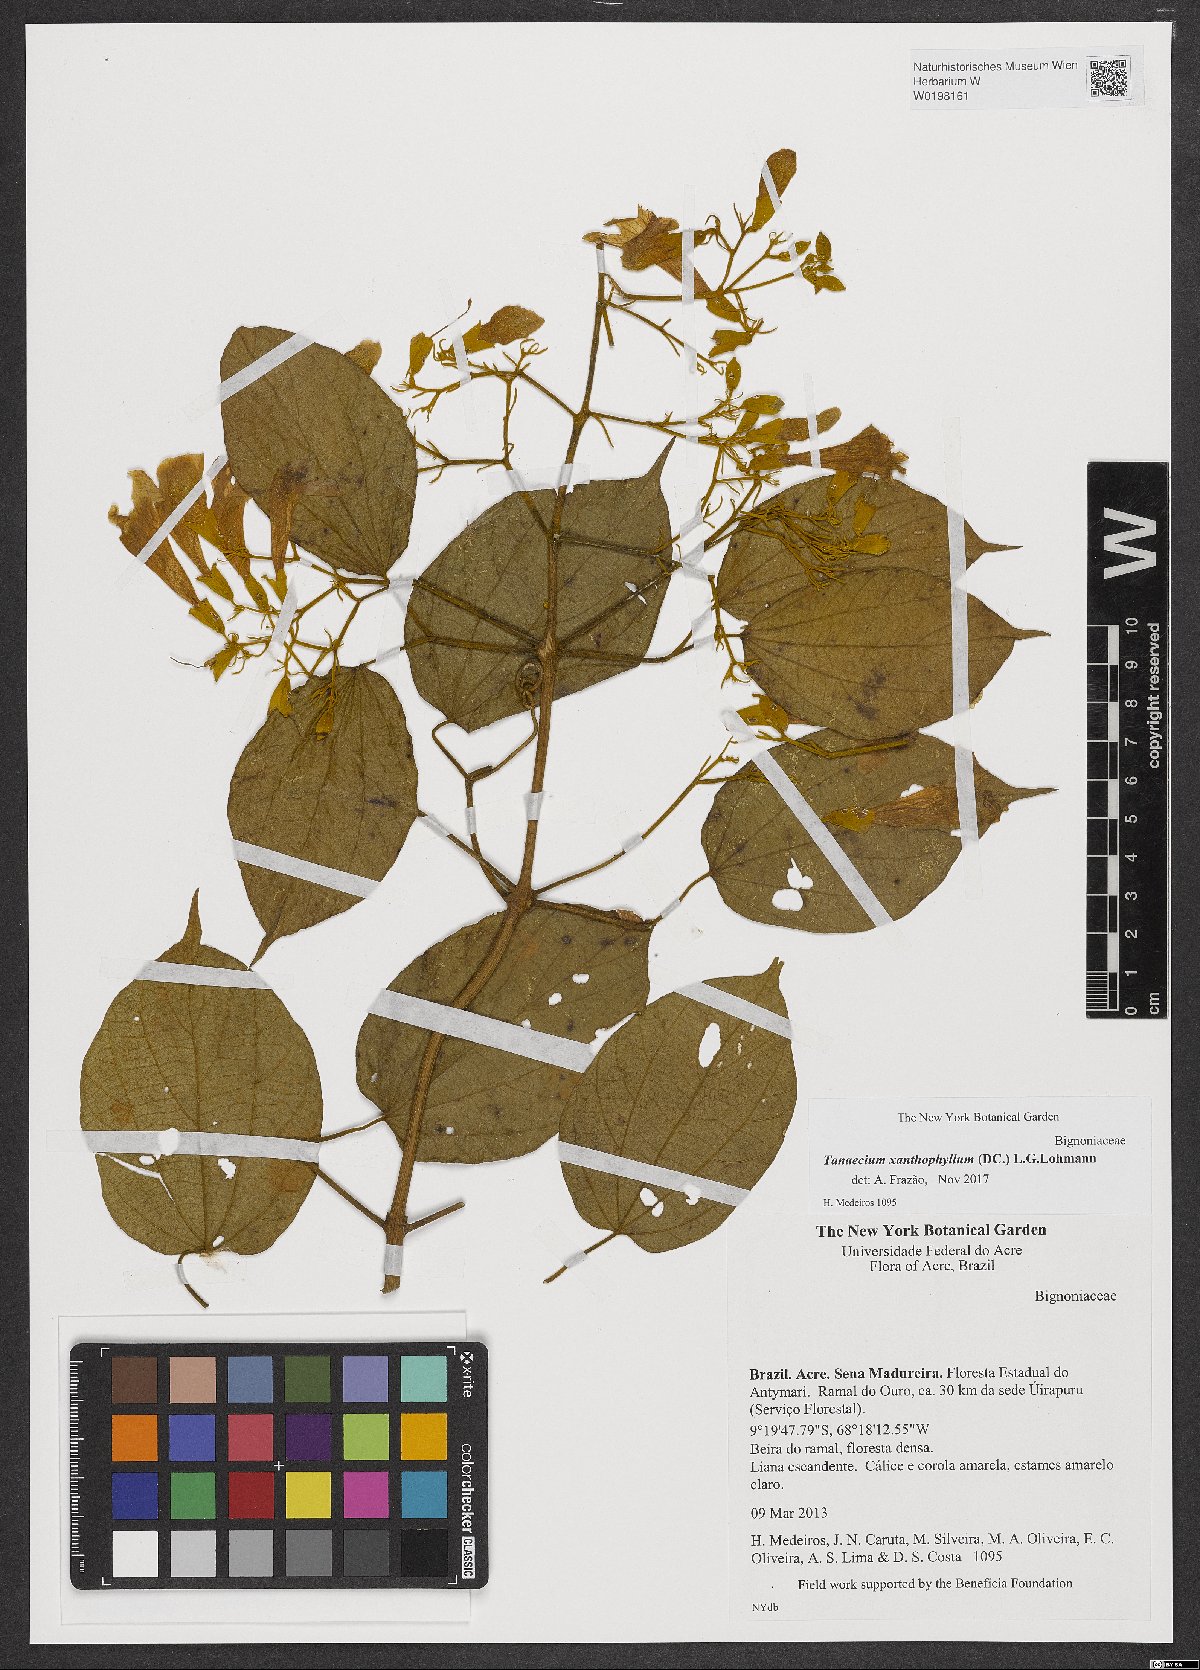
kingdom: Plantae
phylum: Tracheophyta
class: Magnoliopsida
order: Lamiales
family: Bignoniaceae
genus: Tanaecium
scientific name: Tanaecium xanthophyllum
